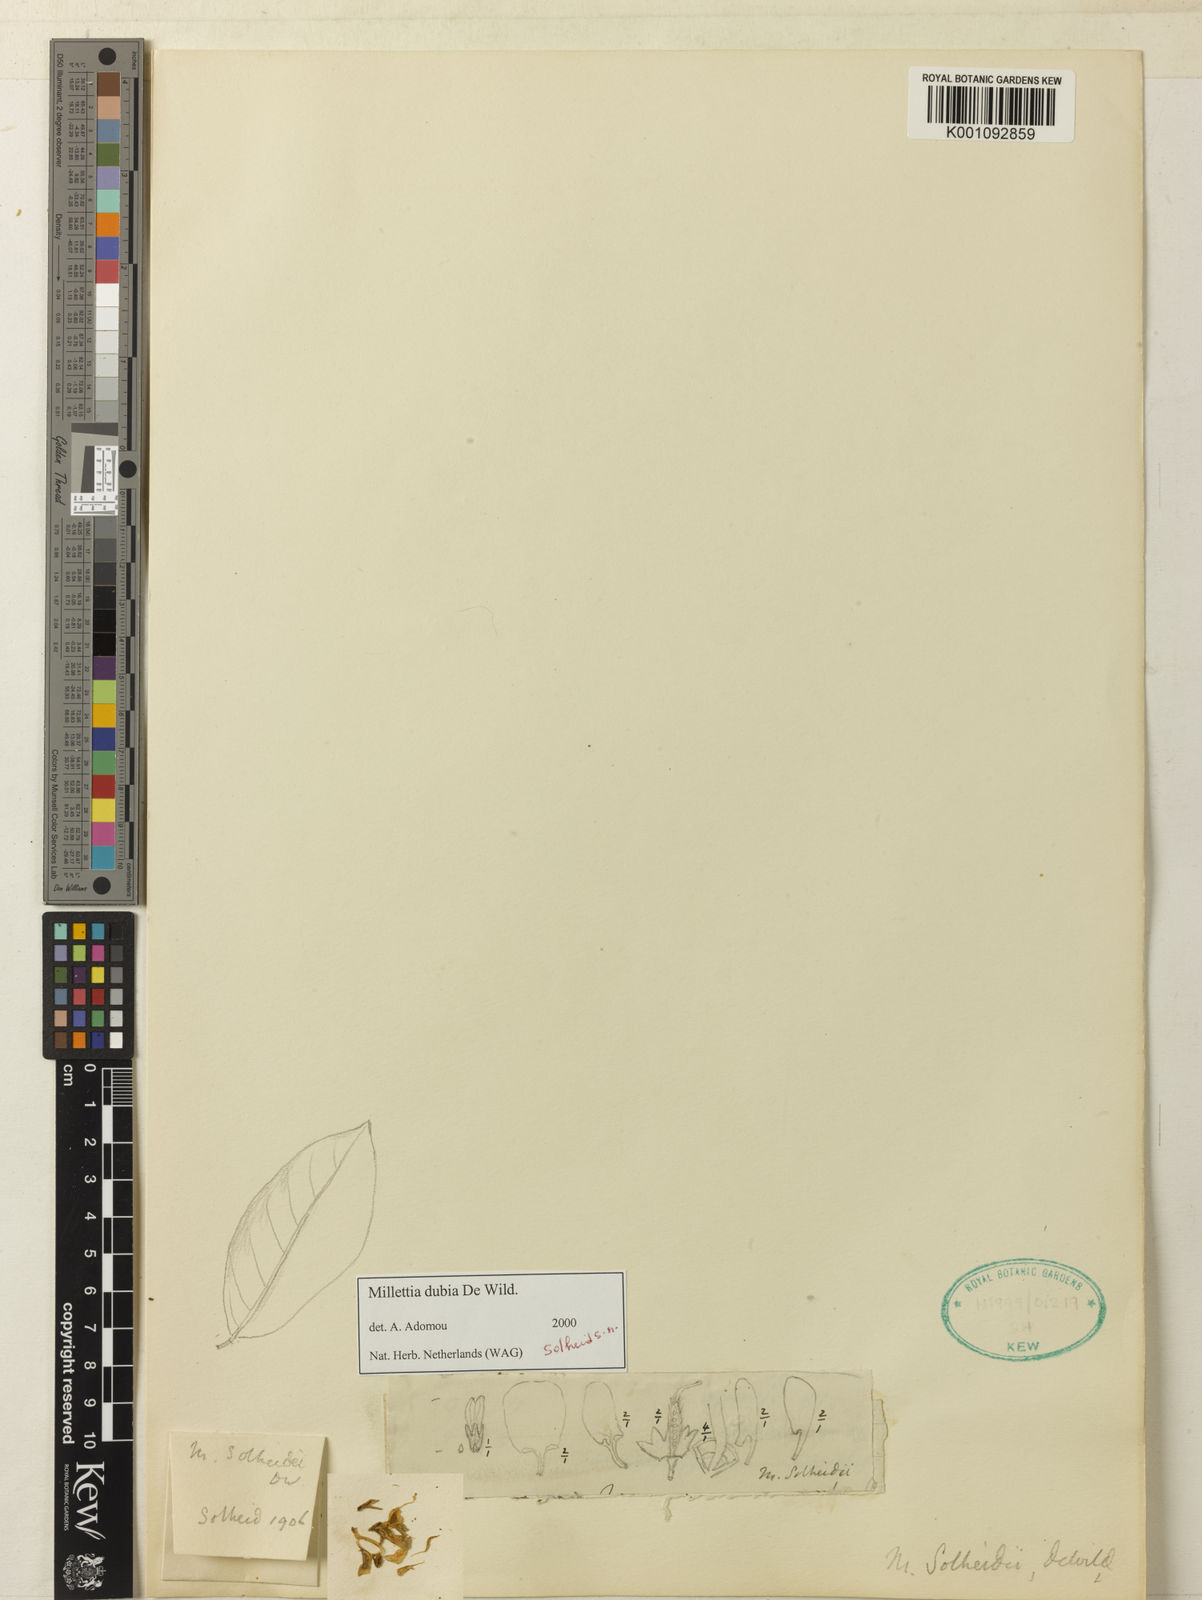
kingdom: Plantae
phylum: Tracheophyta
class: Magnoliopsida
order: Fabales
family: Fabaceae
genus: Millettia
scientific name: Millettia dubia
